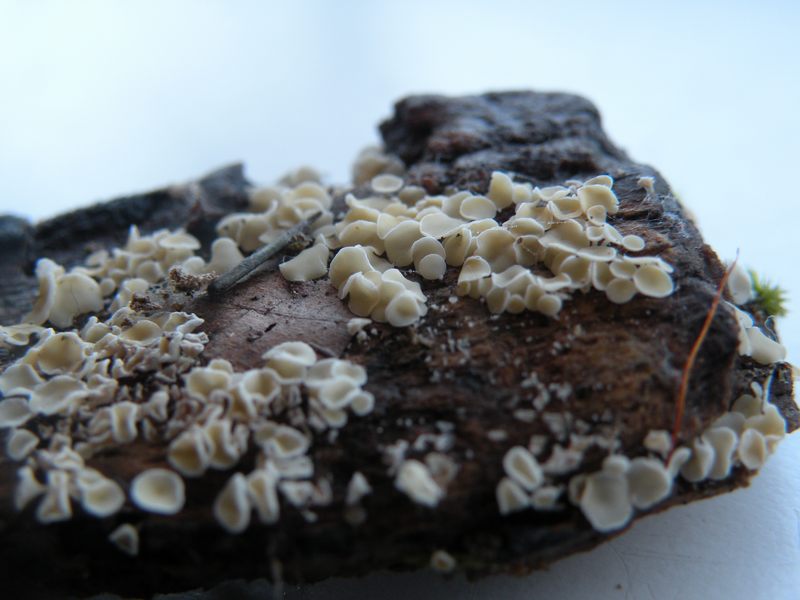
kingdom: Fungi
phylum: Ascomycota
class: Leotiomycetes
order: Helotiales
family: Lachnaceae
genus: Lachnum
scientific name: Lachnum impudicum
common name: vinter-frynseskive
